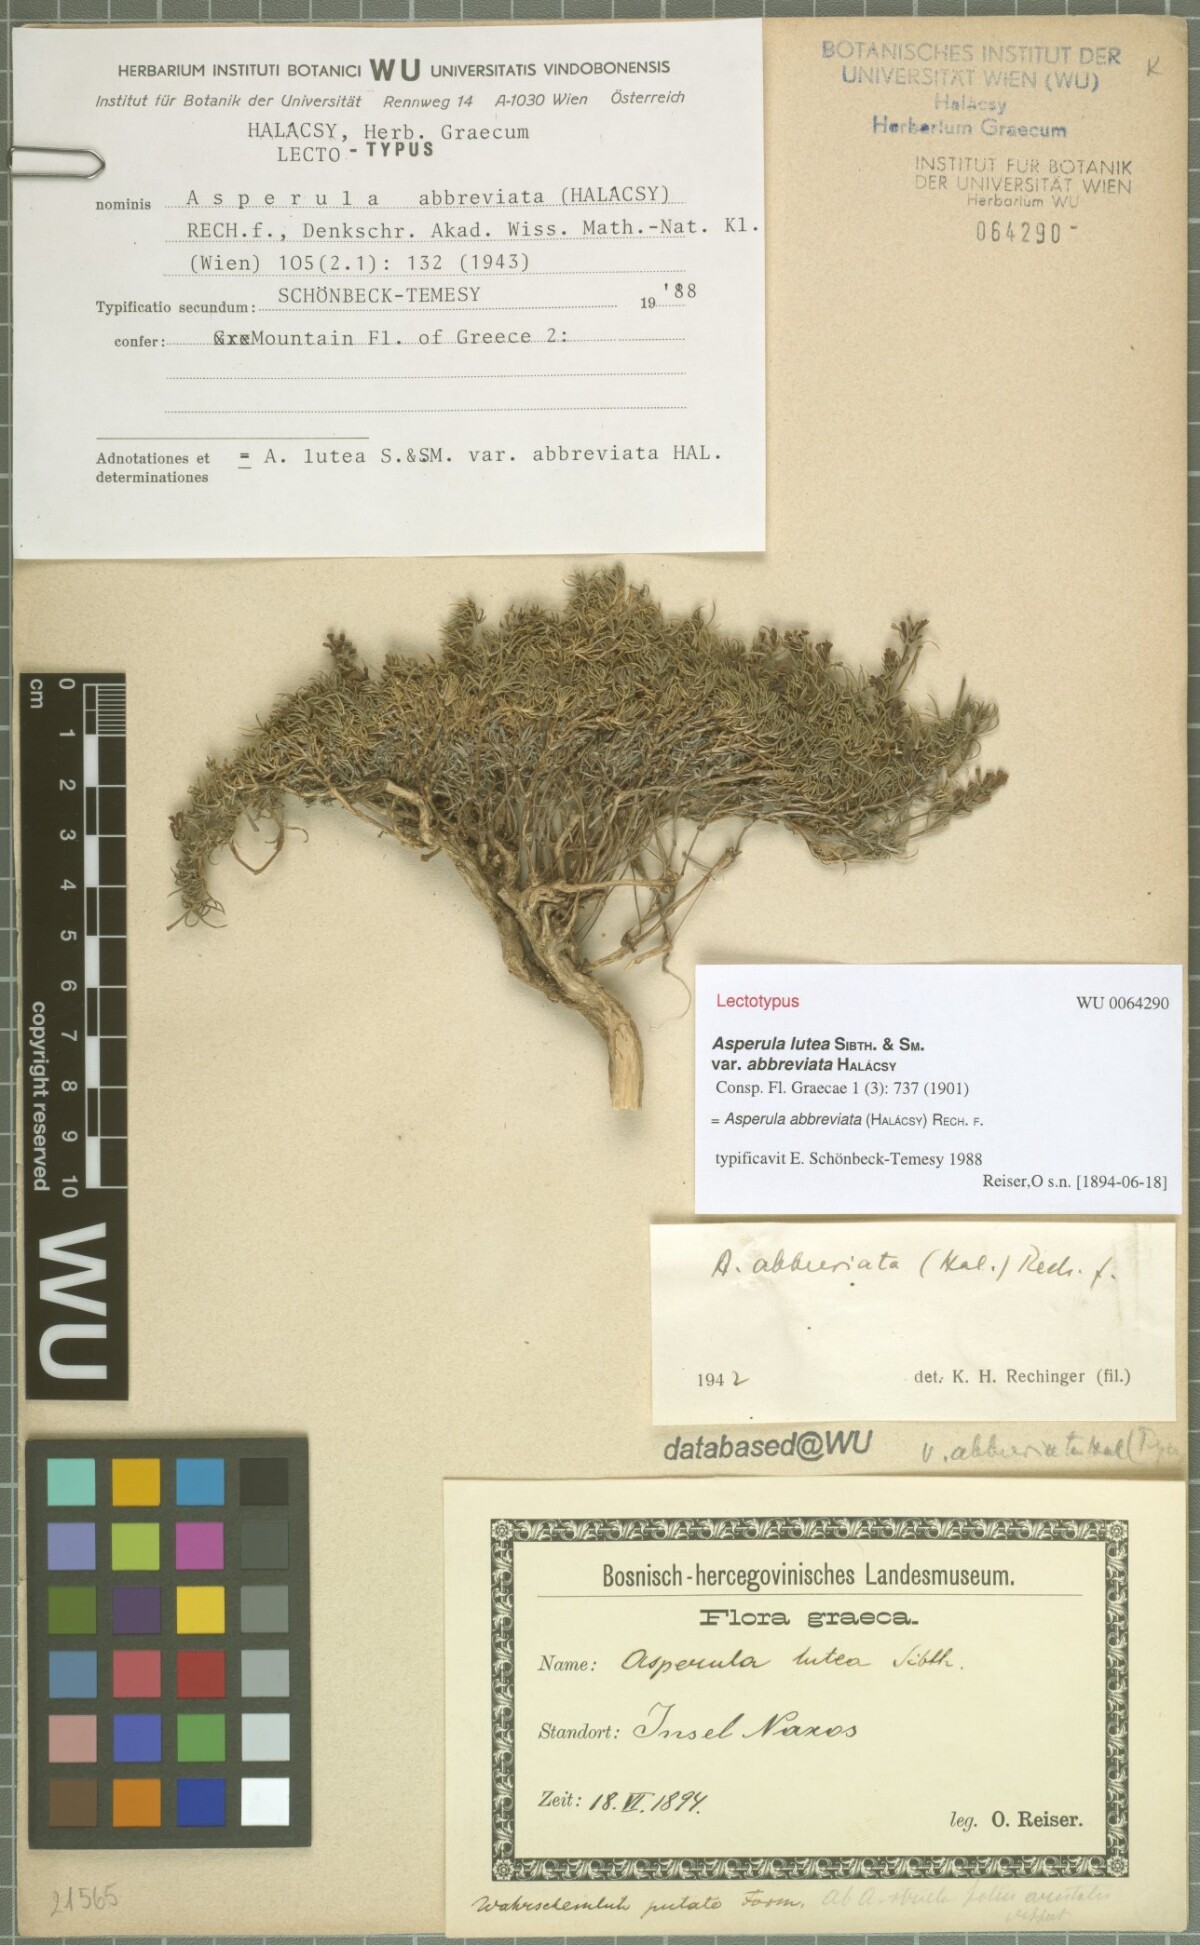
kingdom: Plantae
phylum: Tracheophyta
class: Magnoliopsida
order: Gentianales
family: Rubiaceae
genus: Cynanchica
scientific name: Cynanchica abbreviata
